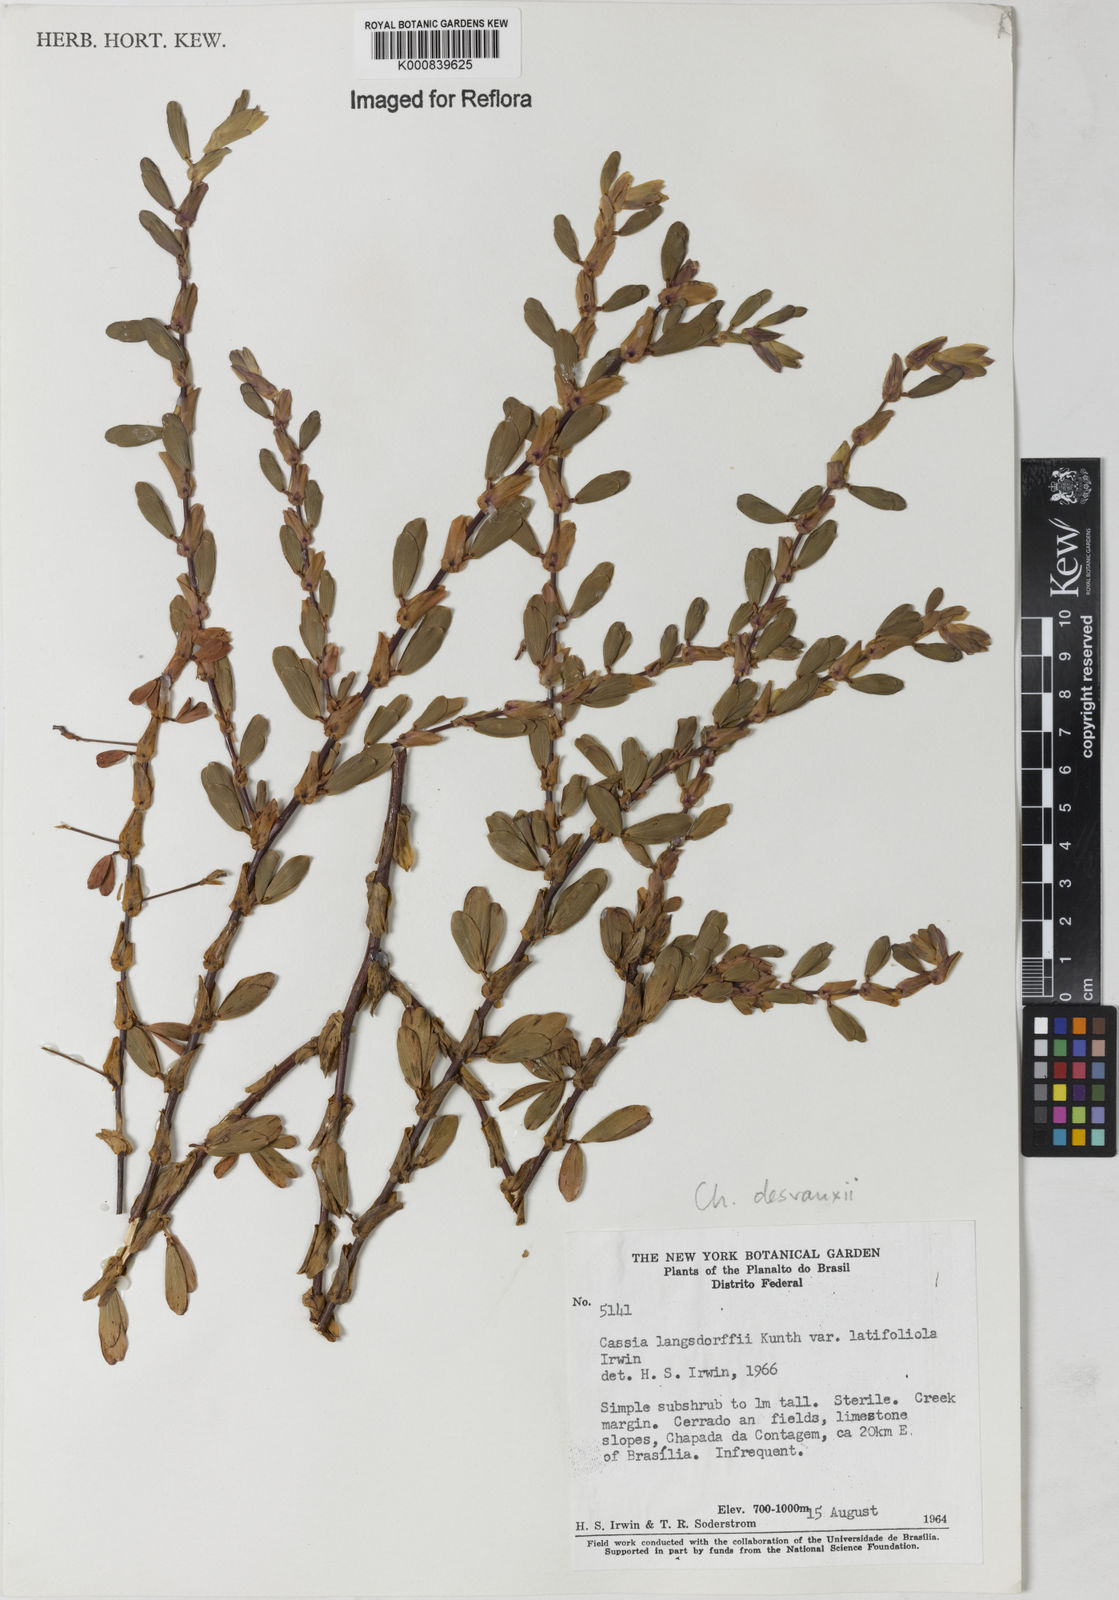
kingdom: Plantae
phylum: Tracheophyta
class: Magnoliopsida
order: Fabales
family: Fabaceae
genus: Chamaecrista
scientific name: Chamaecrista desvauxii
